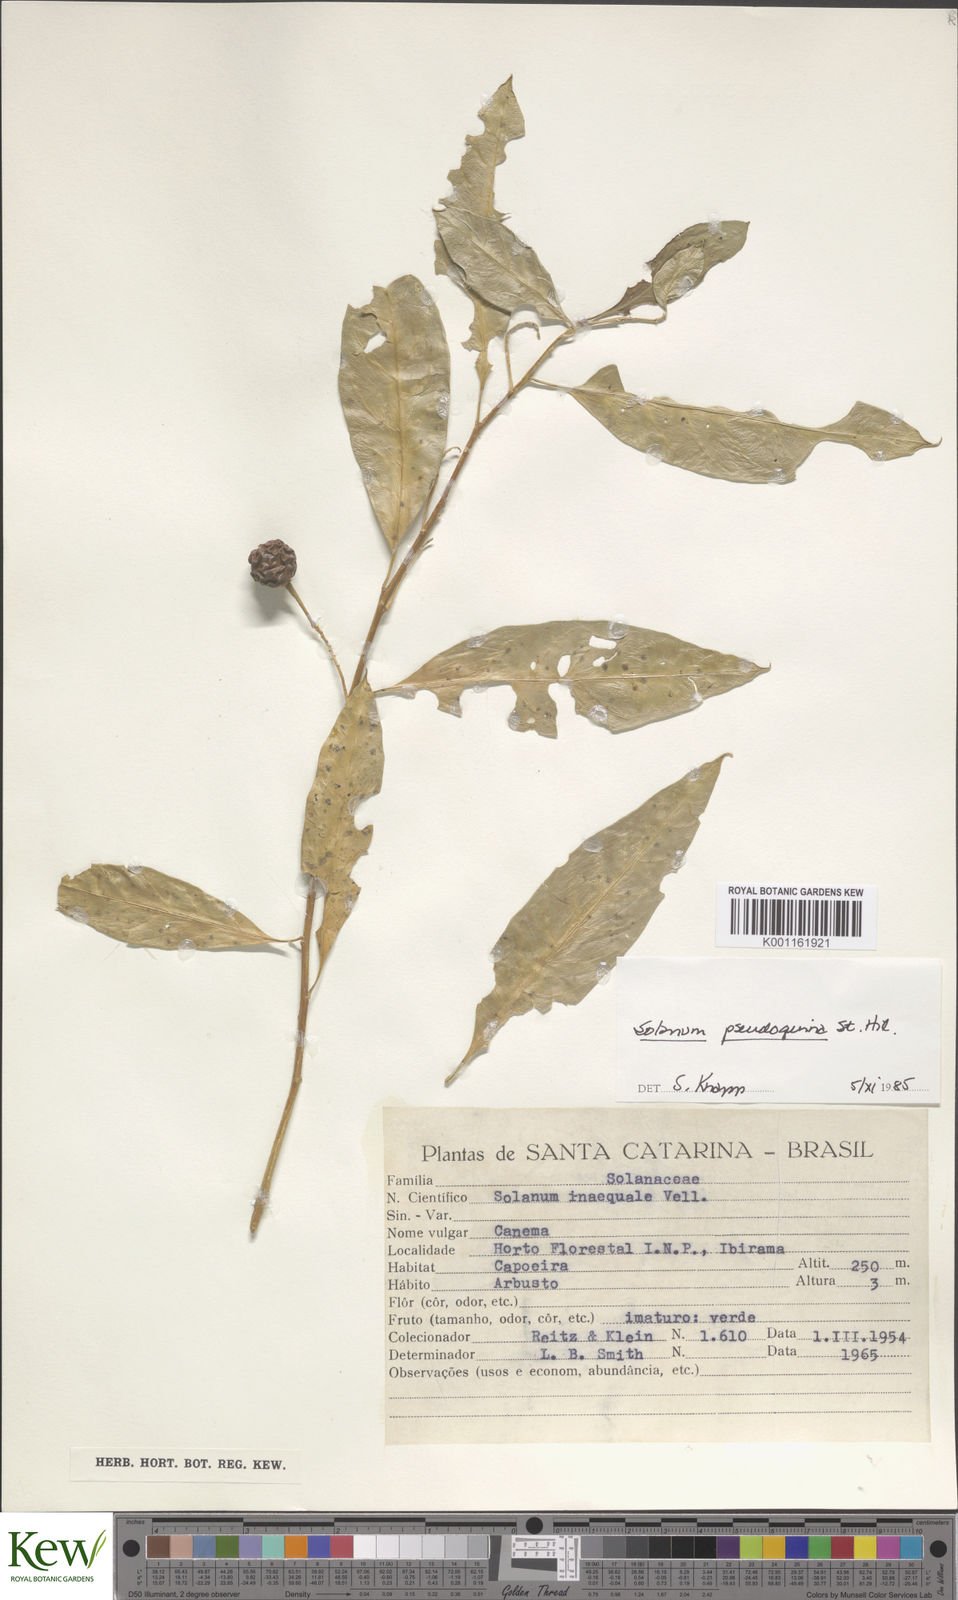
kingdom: Plantae
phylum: Tracheophyta
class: Magnoliopsida
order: Solanales
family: Solanaceae
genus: Solanum
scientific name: Solanum pseudoquina
